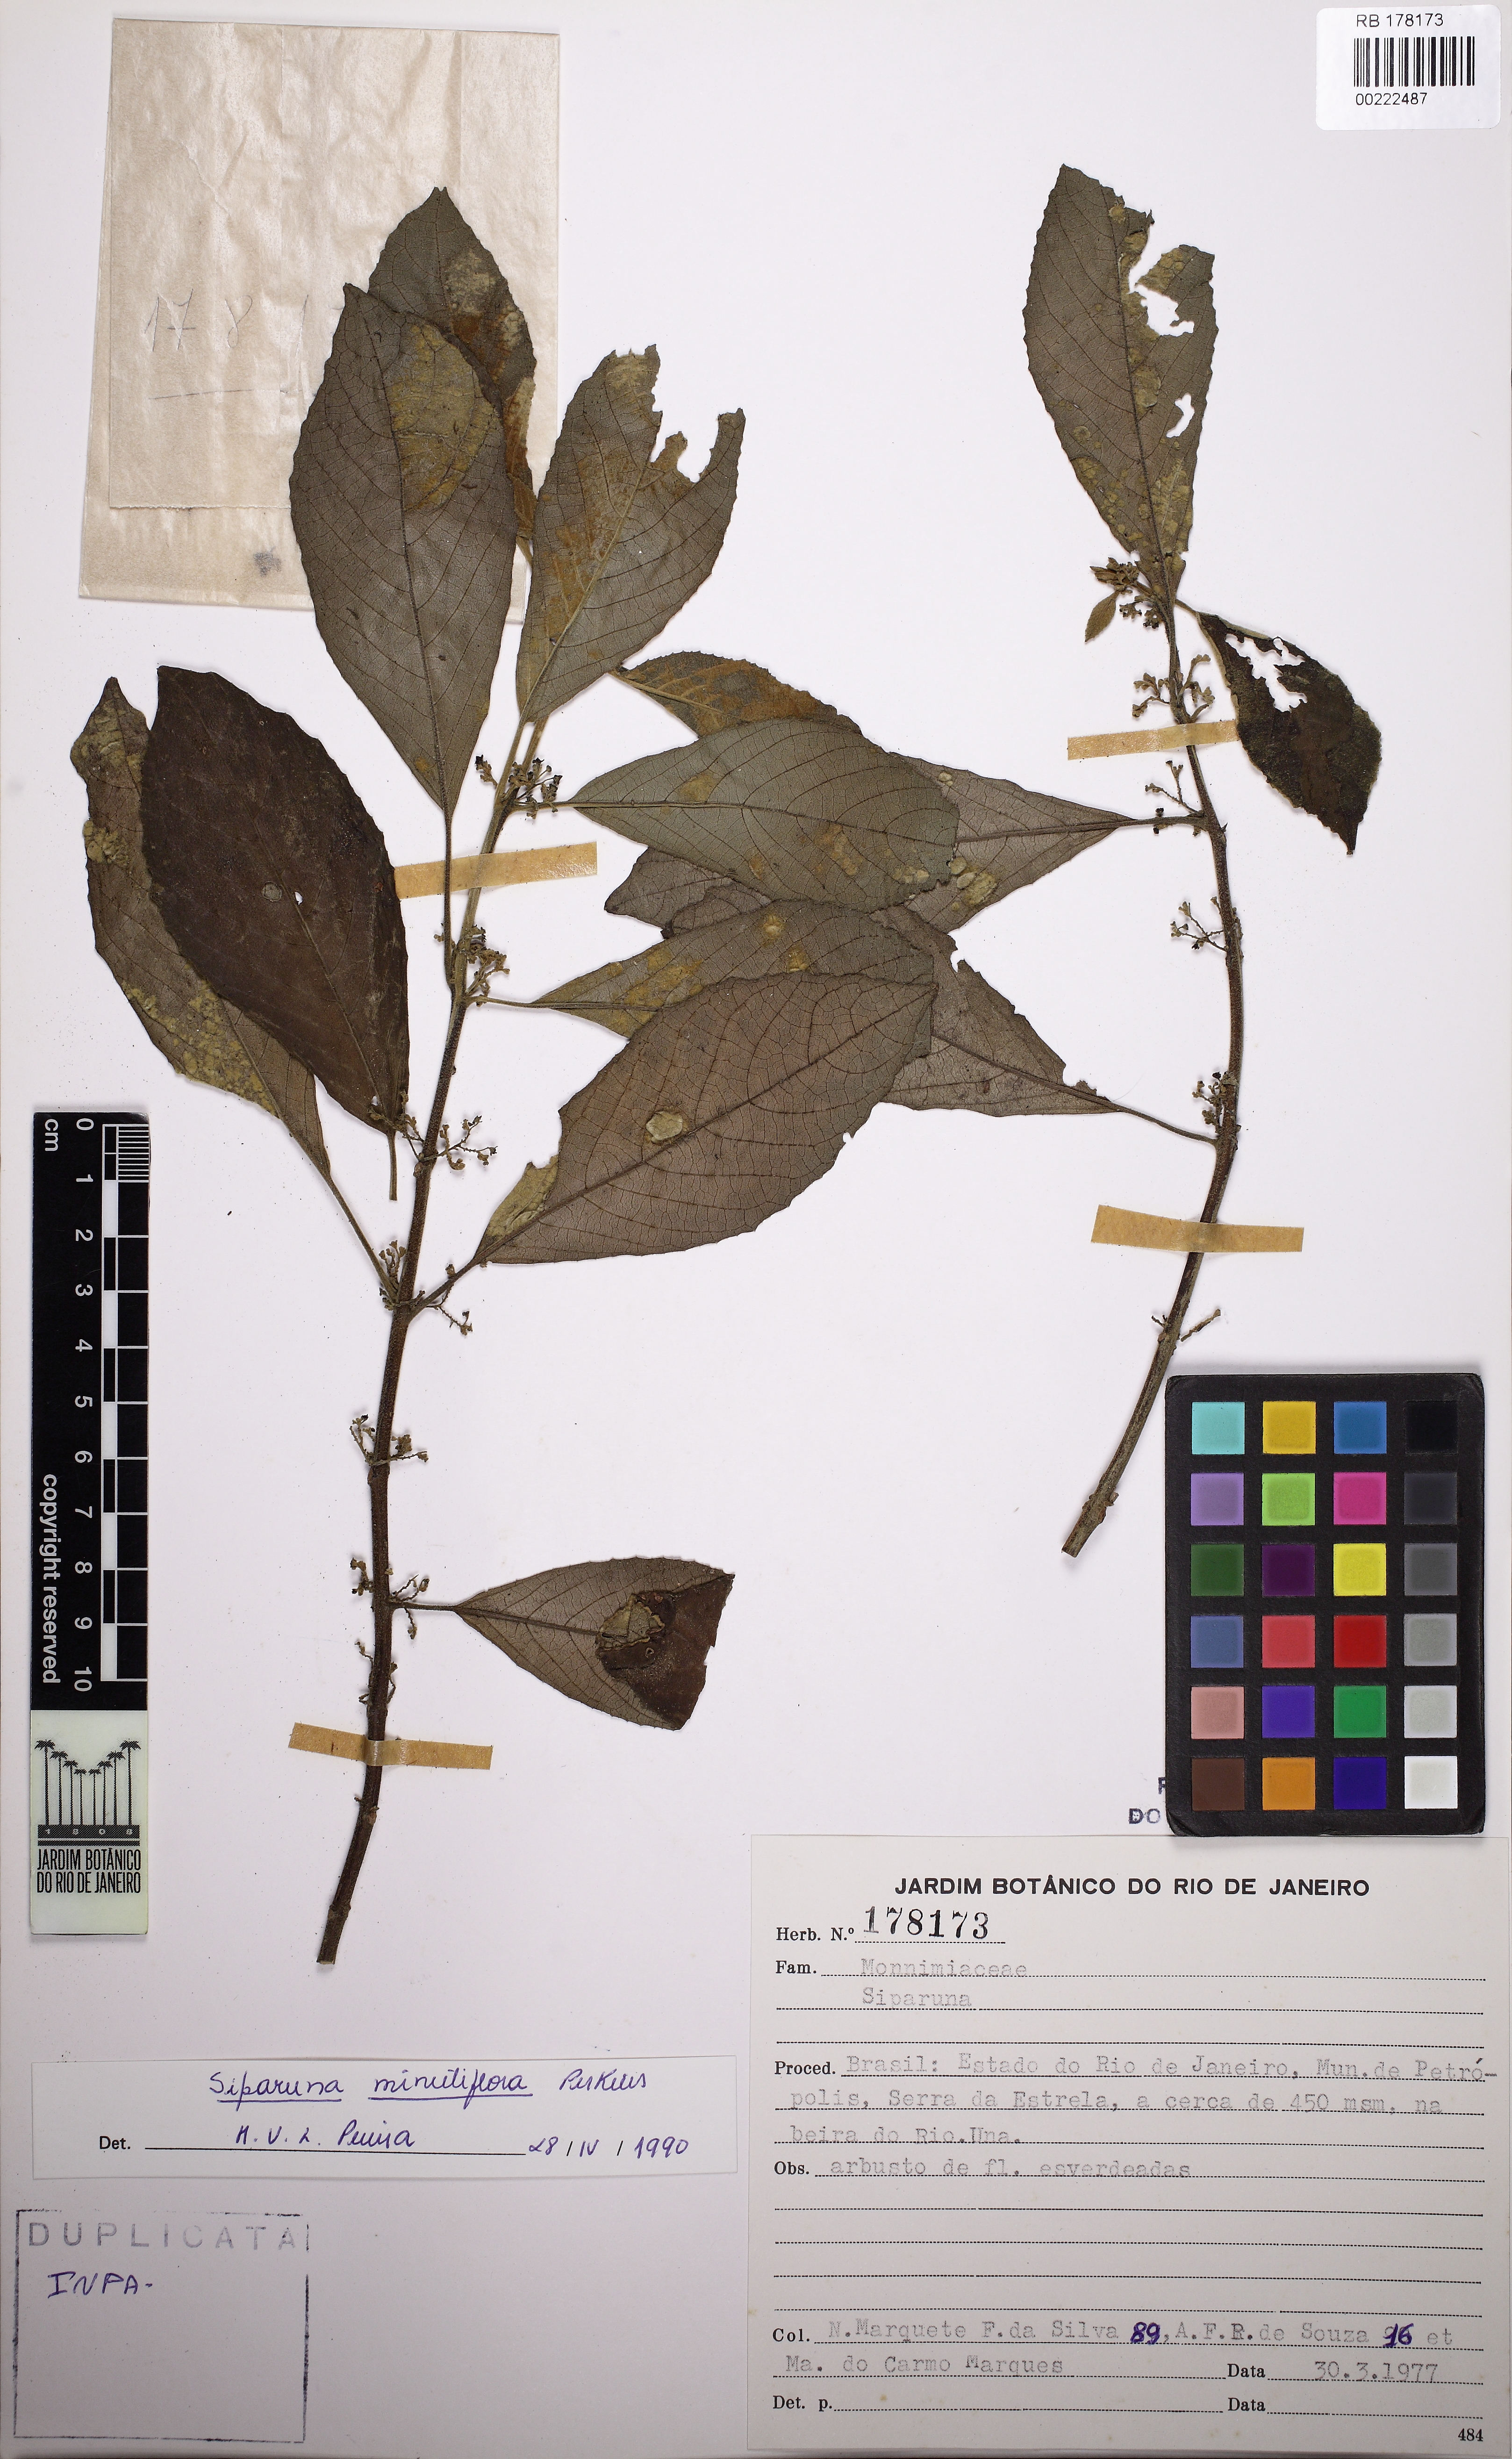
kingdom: Plantae
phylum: Tracheophyta
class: Magnoliopsida
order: Laurales
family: Siparunaceae
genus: Siparuna
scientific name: Siparuna brasiliensis
